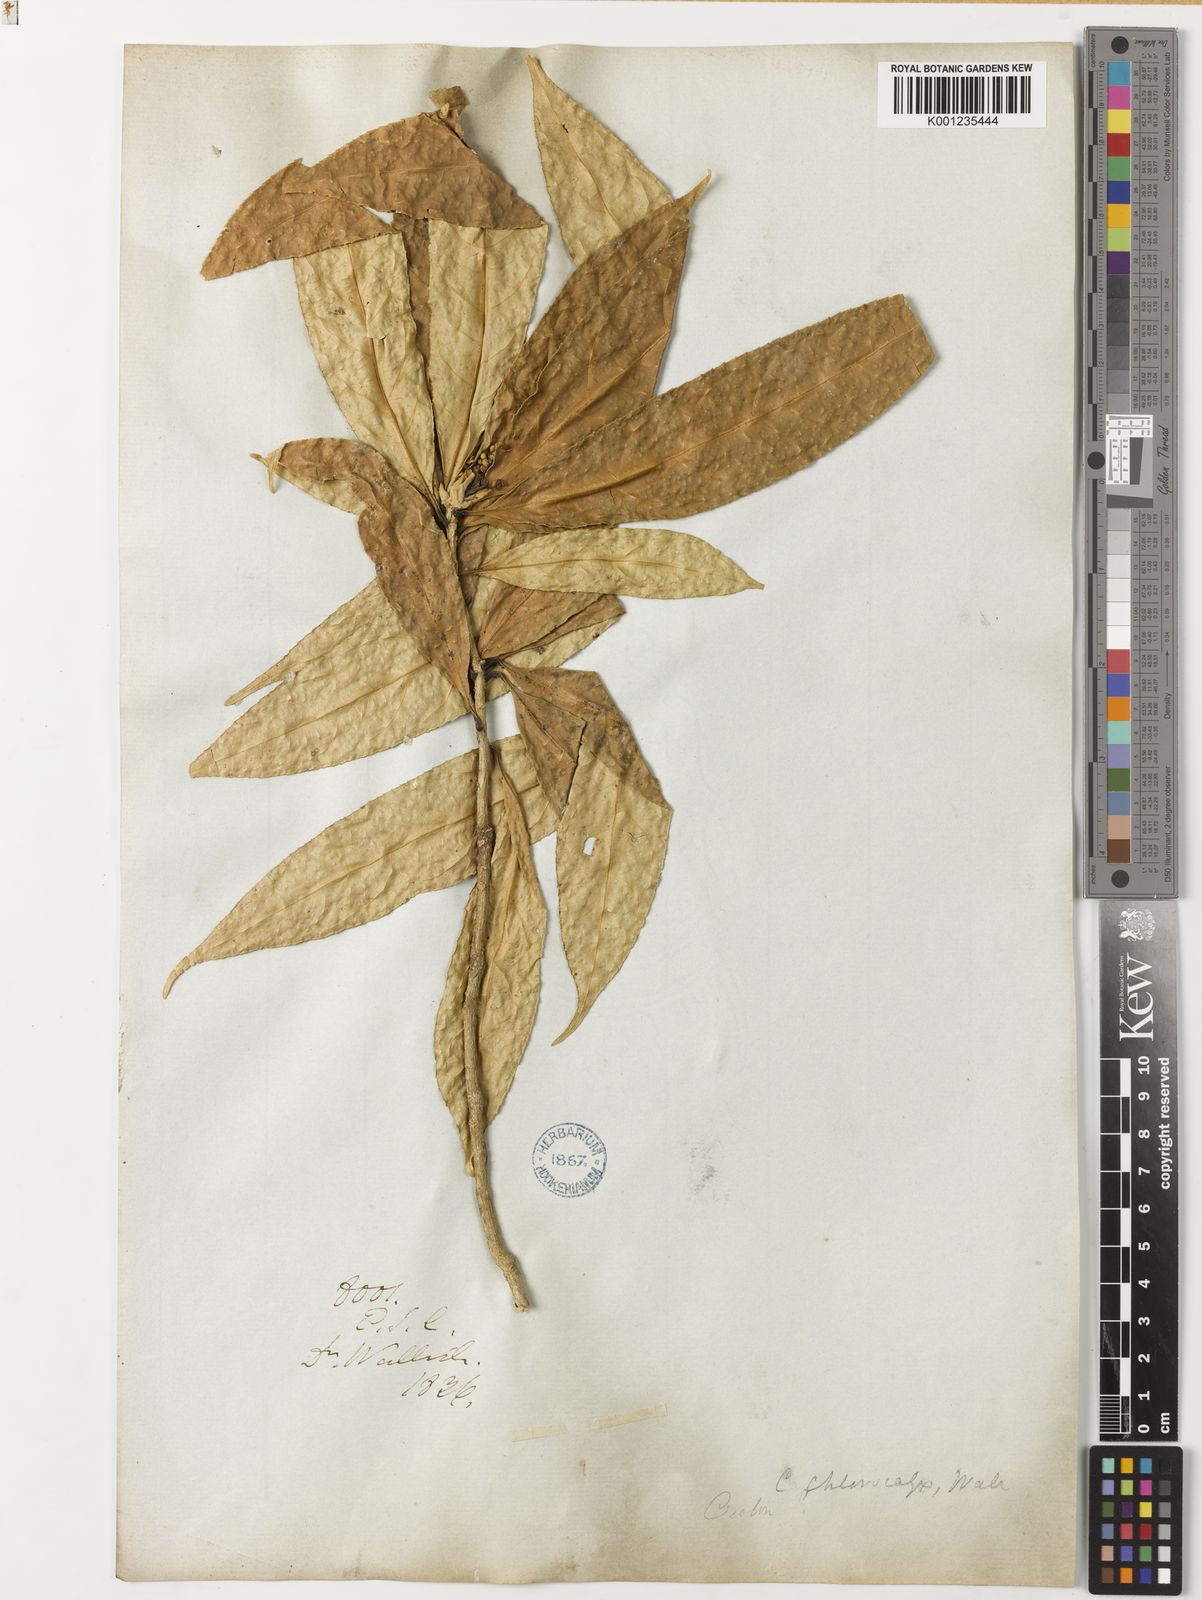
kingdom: Plantae
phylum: Tracheophyta
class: Magnoliopsida
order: Malpighiales
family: Euphorbiaceae
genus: Croton
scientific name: Croton
